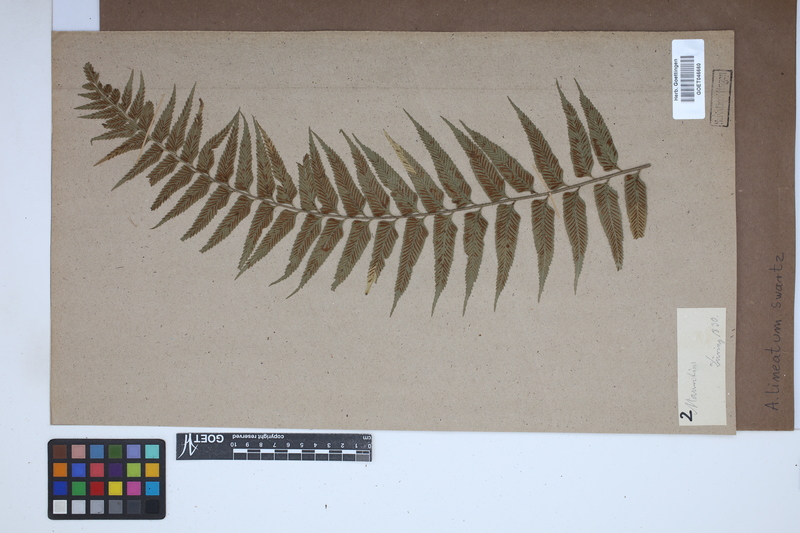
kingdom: Plantae
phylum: Tracheophyta
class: Polypodiopsida
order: Polypodiales
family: Aspleniaceae
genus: Asplenium
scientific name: Asplenium daucifolium
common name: Mauritius spleenwort
